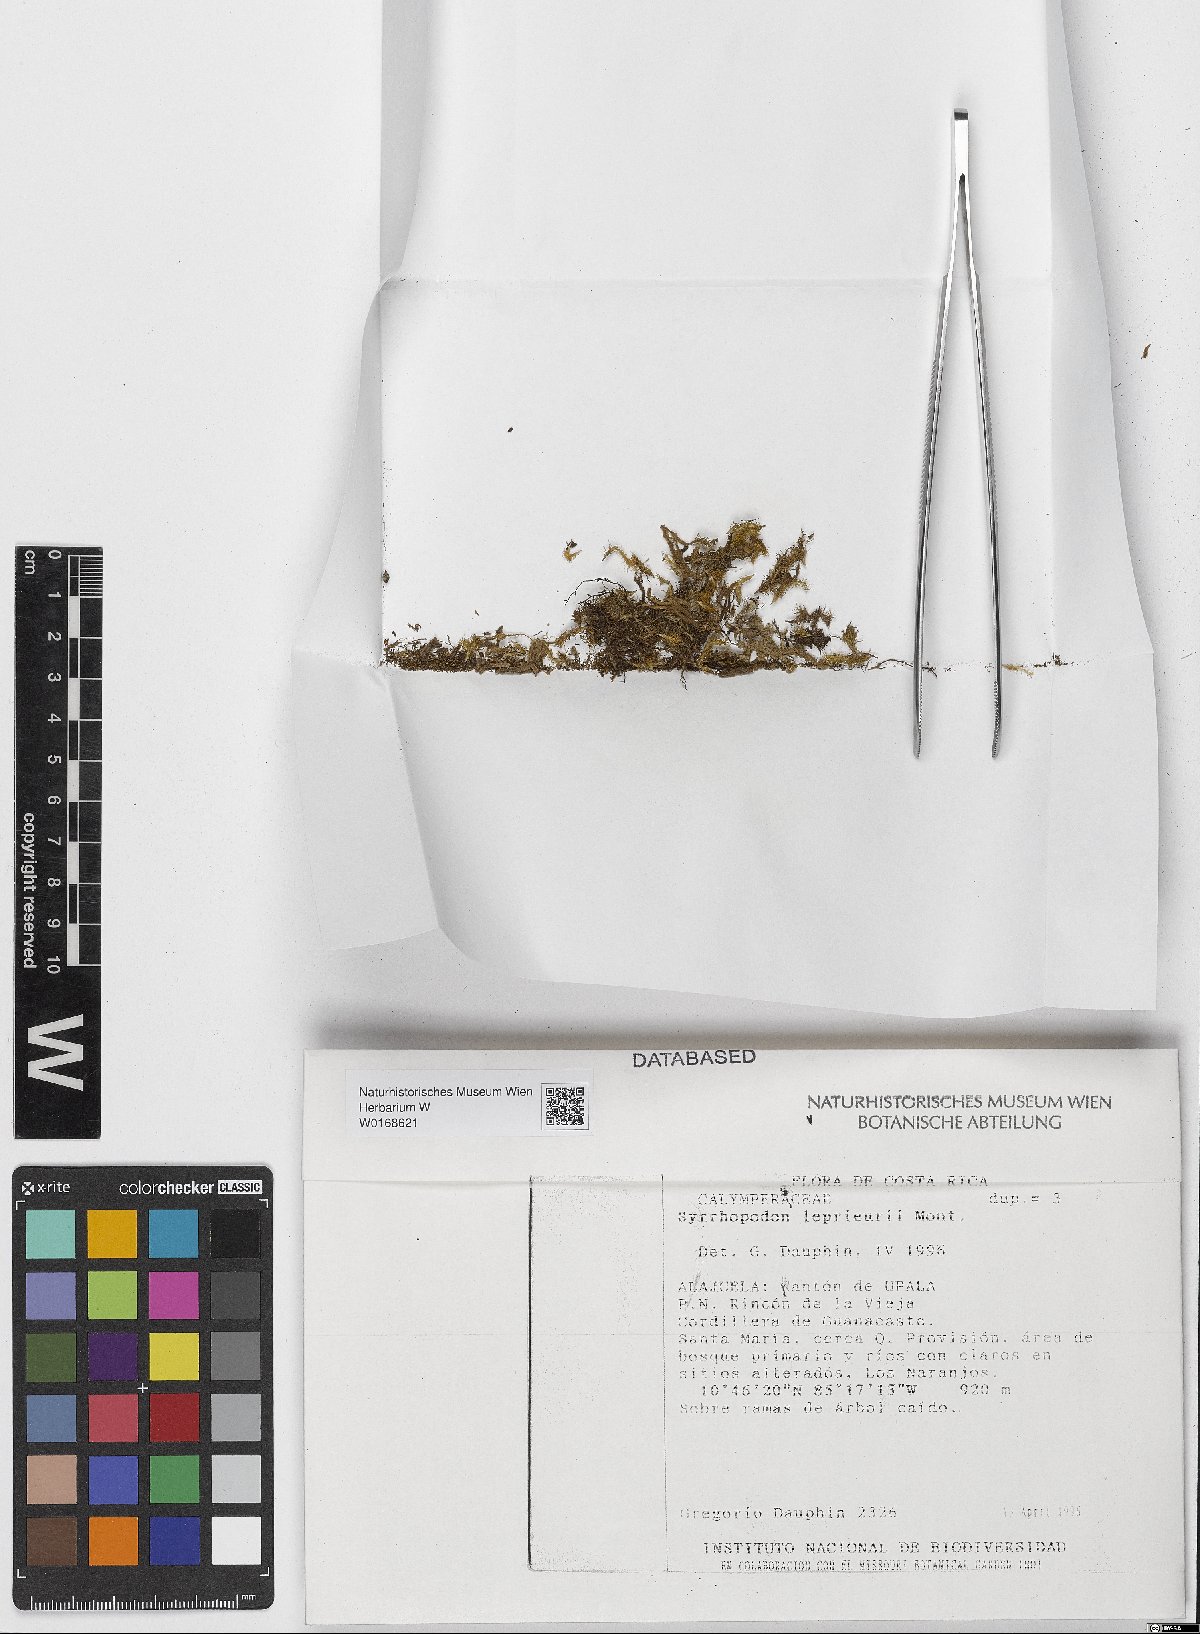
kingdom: Plantae
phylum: Bryophyta
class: Bryopsida
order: Dicranales
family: Calymperaceae
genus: Syrrhopodon
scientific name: Syrrhopodon leprieurii
